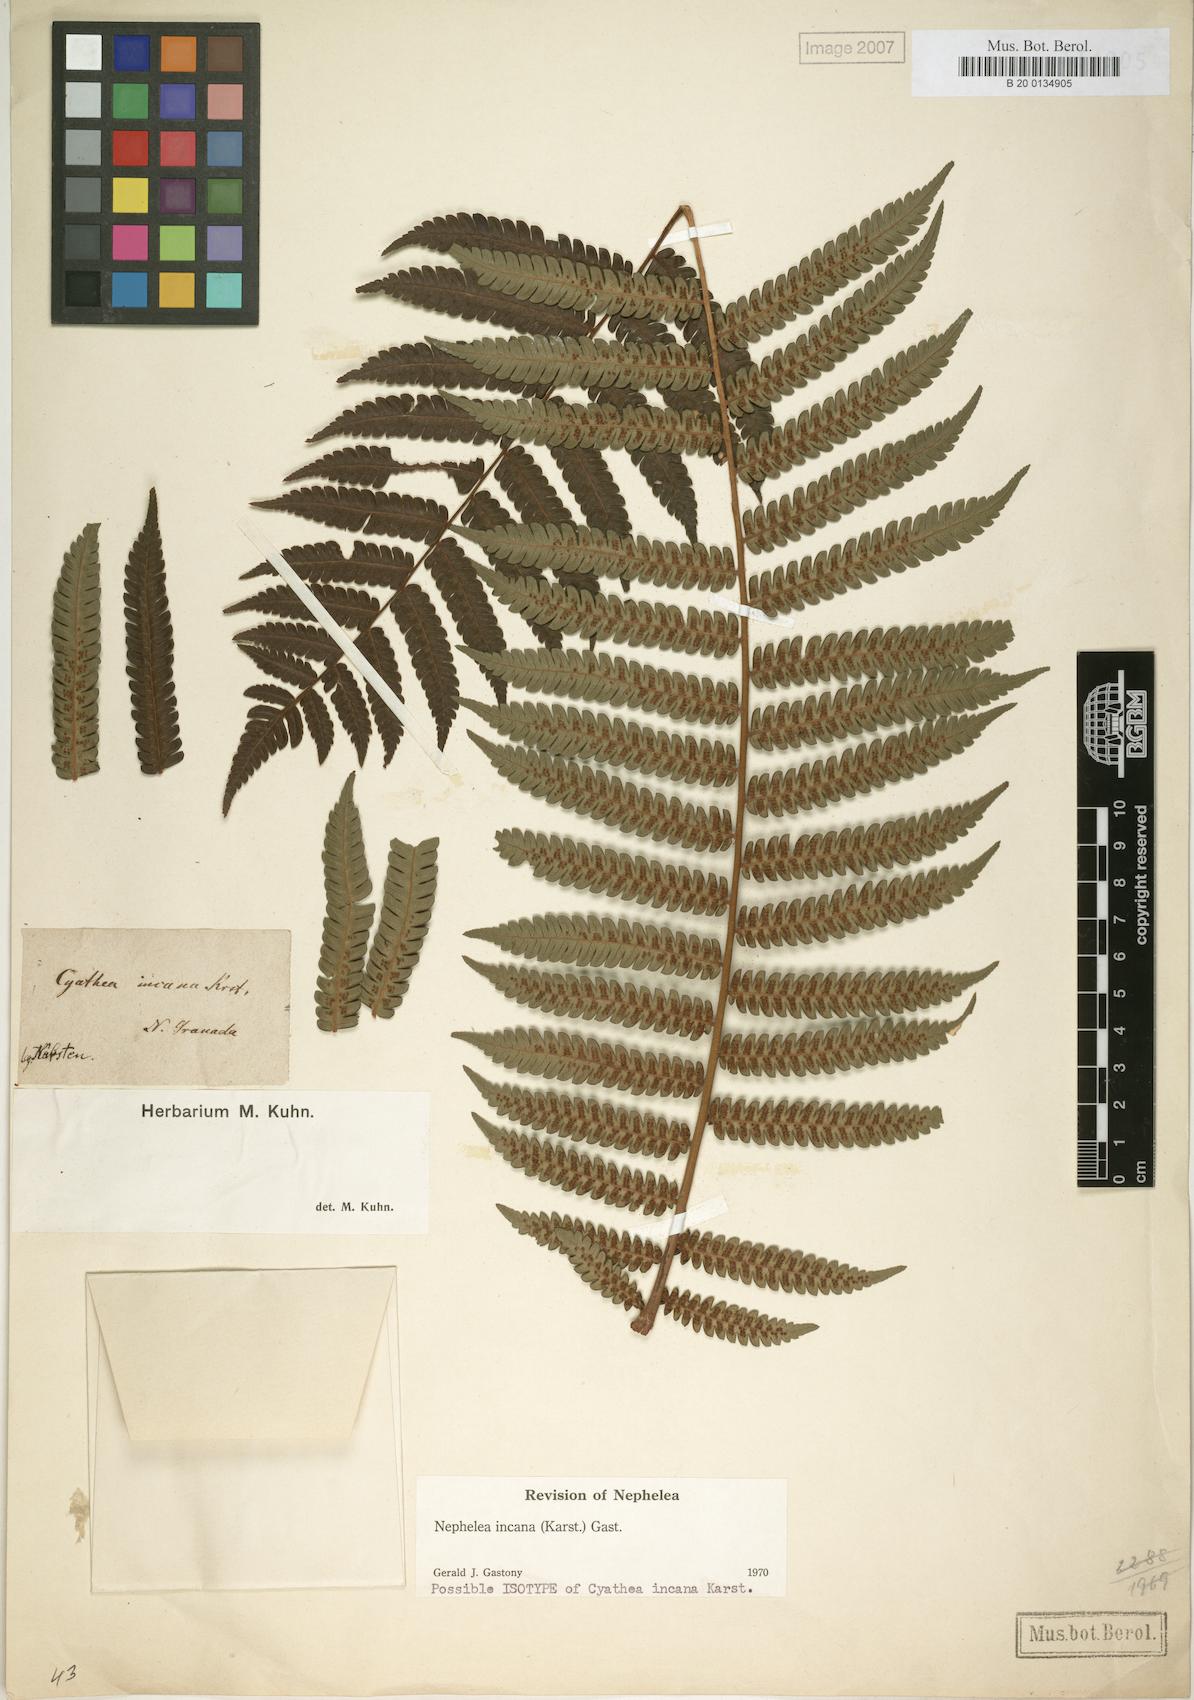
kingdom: Plantae
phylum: Tracheophyta
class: Polypodiopsida
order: Cyatheales
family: Cyatheaceae
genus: Alsophila
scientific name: Alsophila incana
